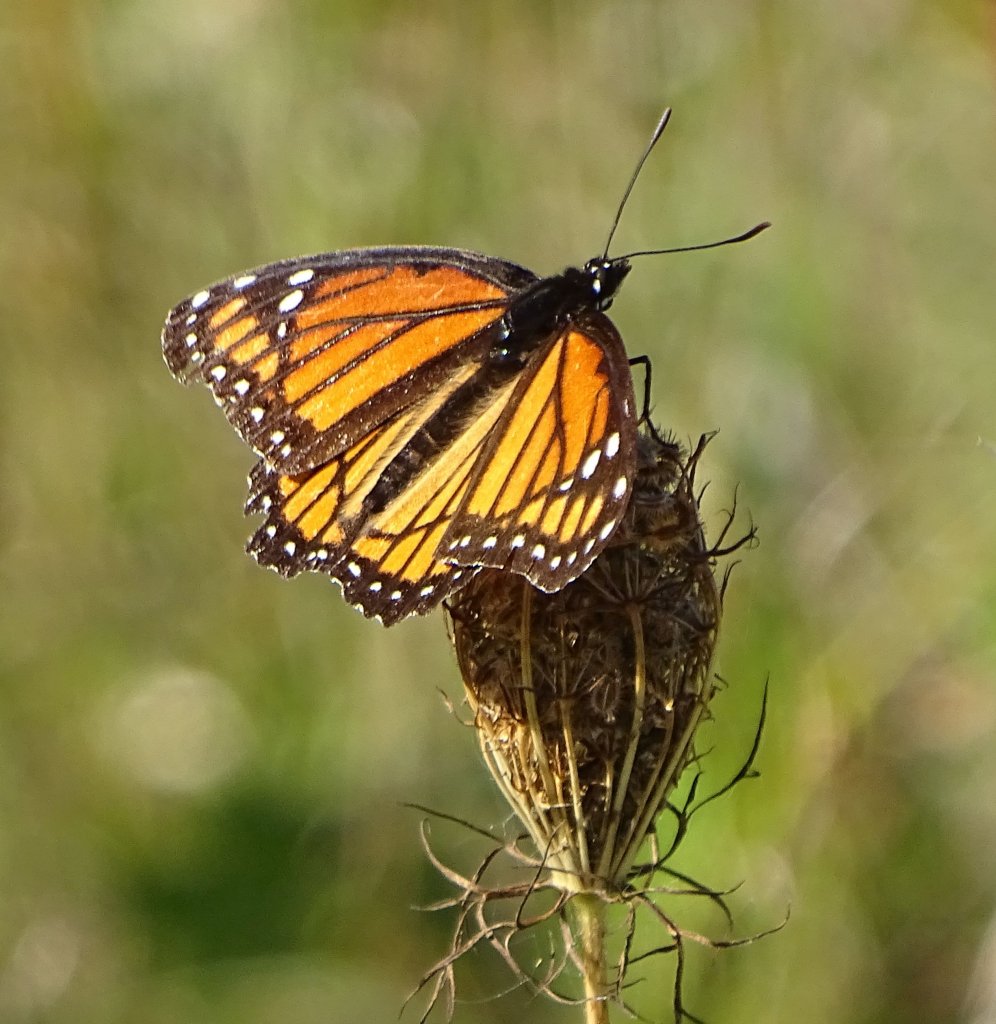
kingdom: Animalia
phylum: Arthropoda
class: Insecta
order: Lepidoptera
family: Nymphalidae
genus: Limenitis
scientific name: Limenitis archippus
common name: Viceroy
